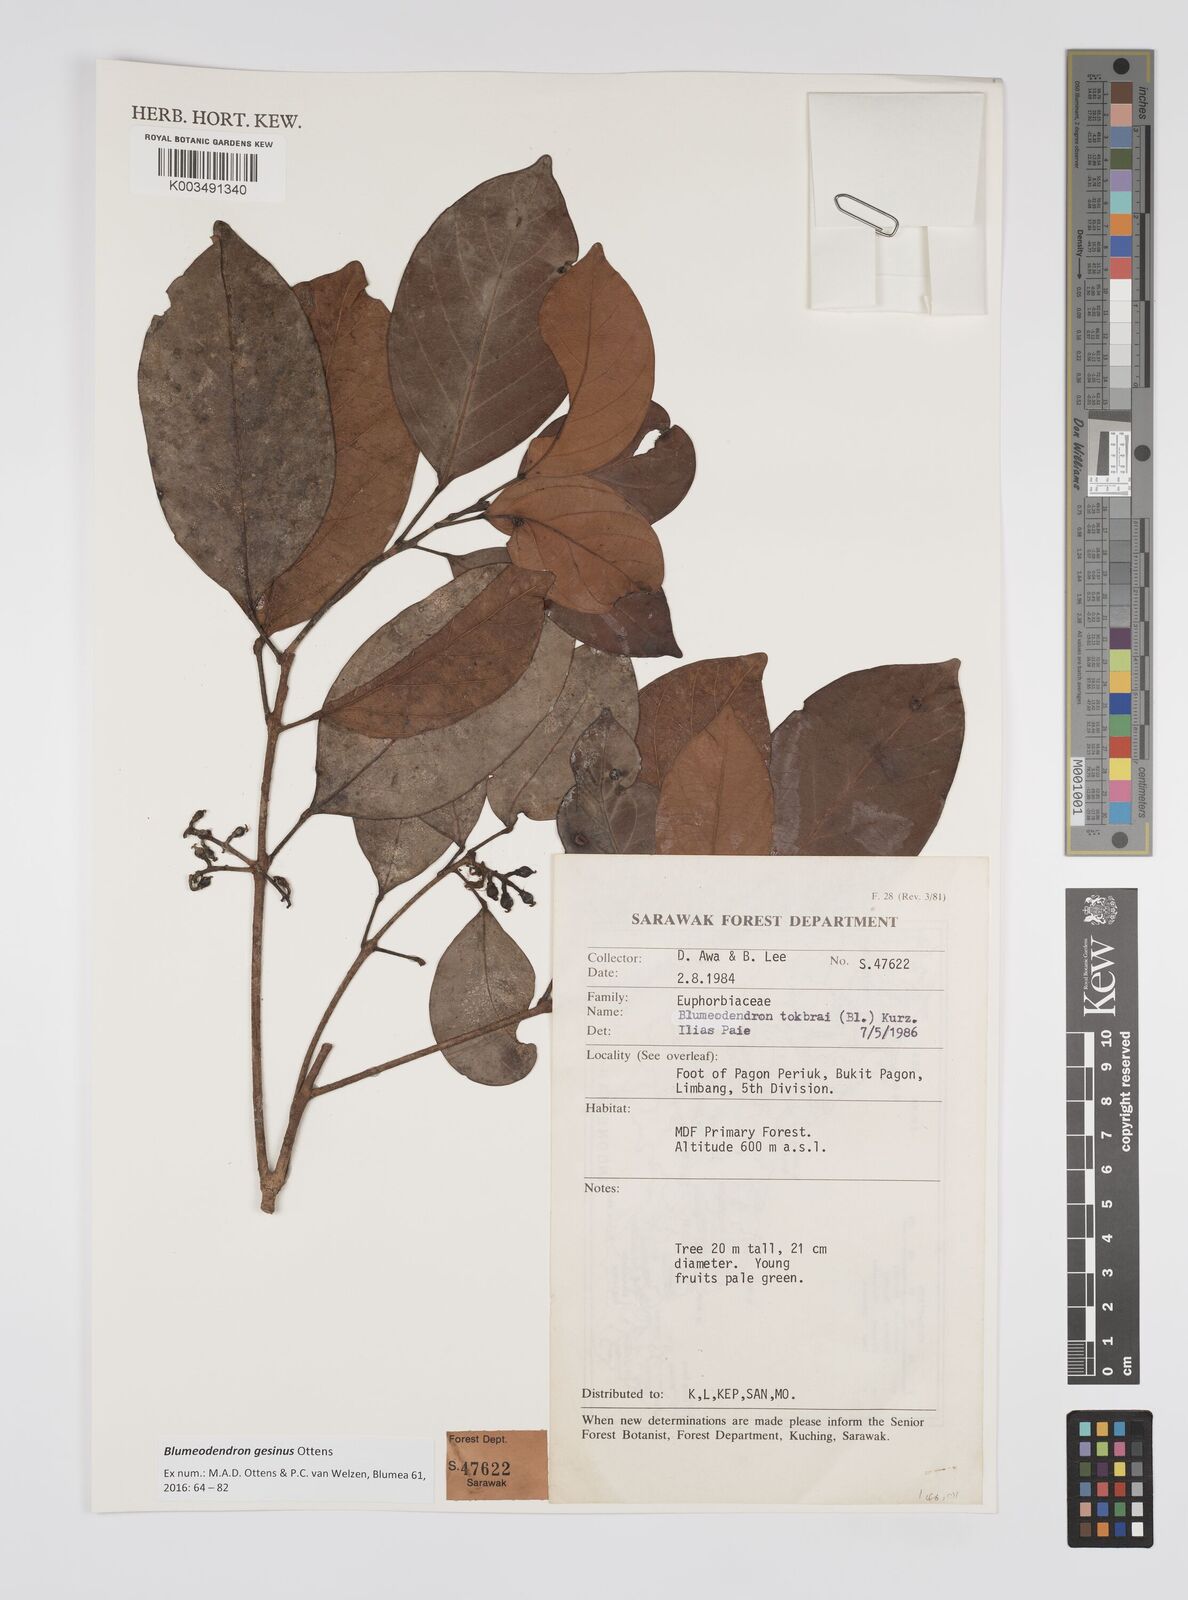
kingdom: Plantae
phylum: Tracheophyta
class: Magnoliopsida
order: Malpighiales
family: Euphorbiaceae
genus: Blumeodendron
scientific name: Blumeodendron gesinus
